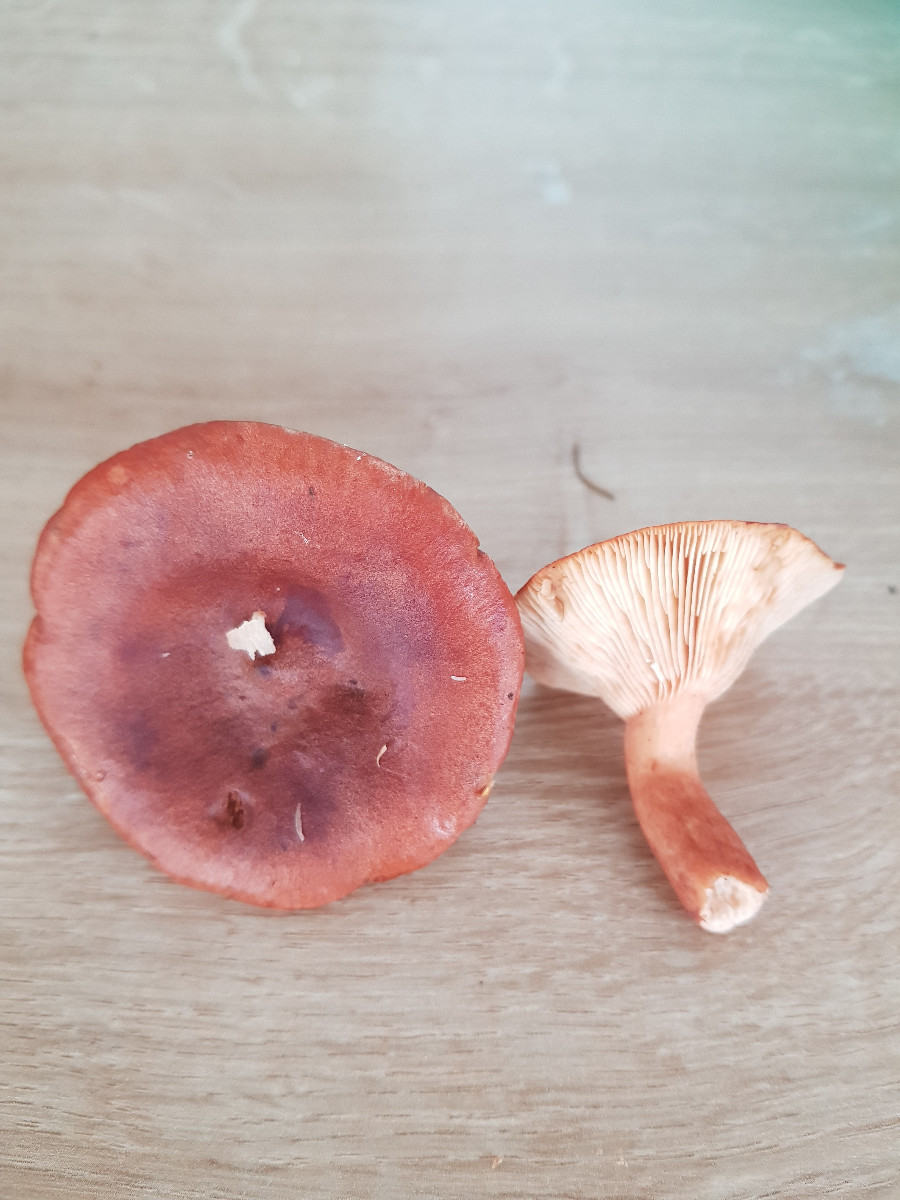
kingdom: Fungi
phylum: Basidiomycota
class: Agaricomycetes
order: Russulales
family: Russulaceae
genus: Lactarius
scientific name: Lactarius rufus
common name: rødbrun mælkehat
